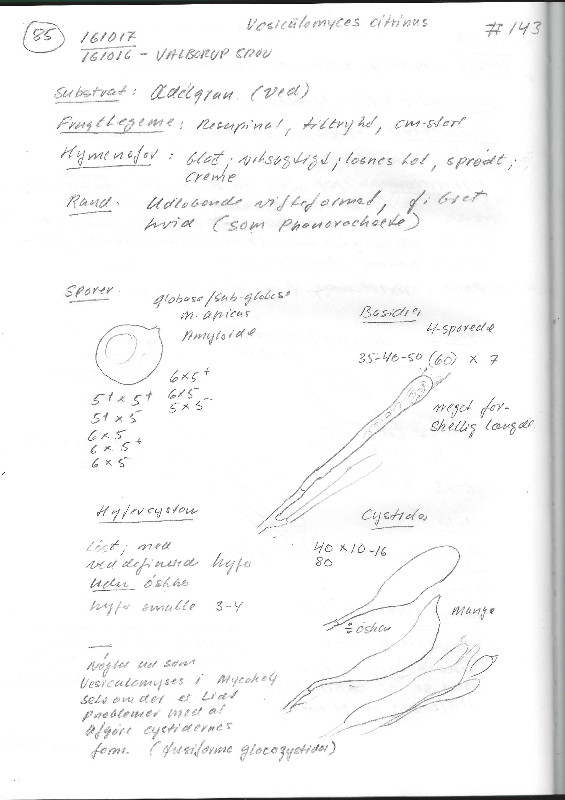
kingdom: Fungi
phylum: Basidiomycota
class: Agaricomycetes
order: Russulales
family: Peniophoraceae
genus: Gloiothele
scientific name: Gloiothele citrina
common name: citronskorpe
